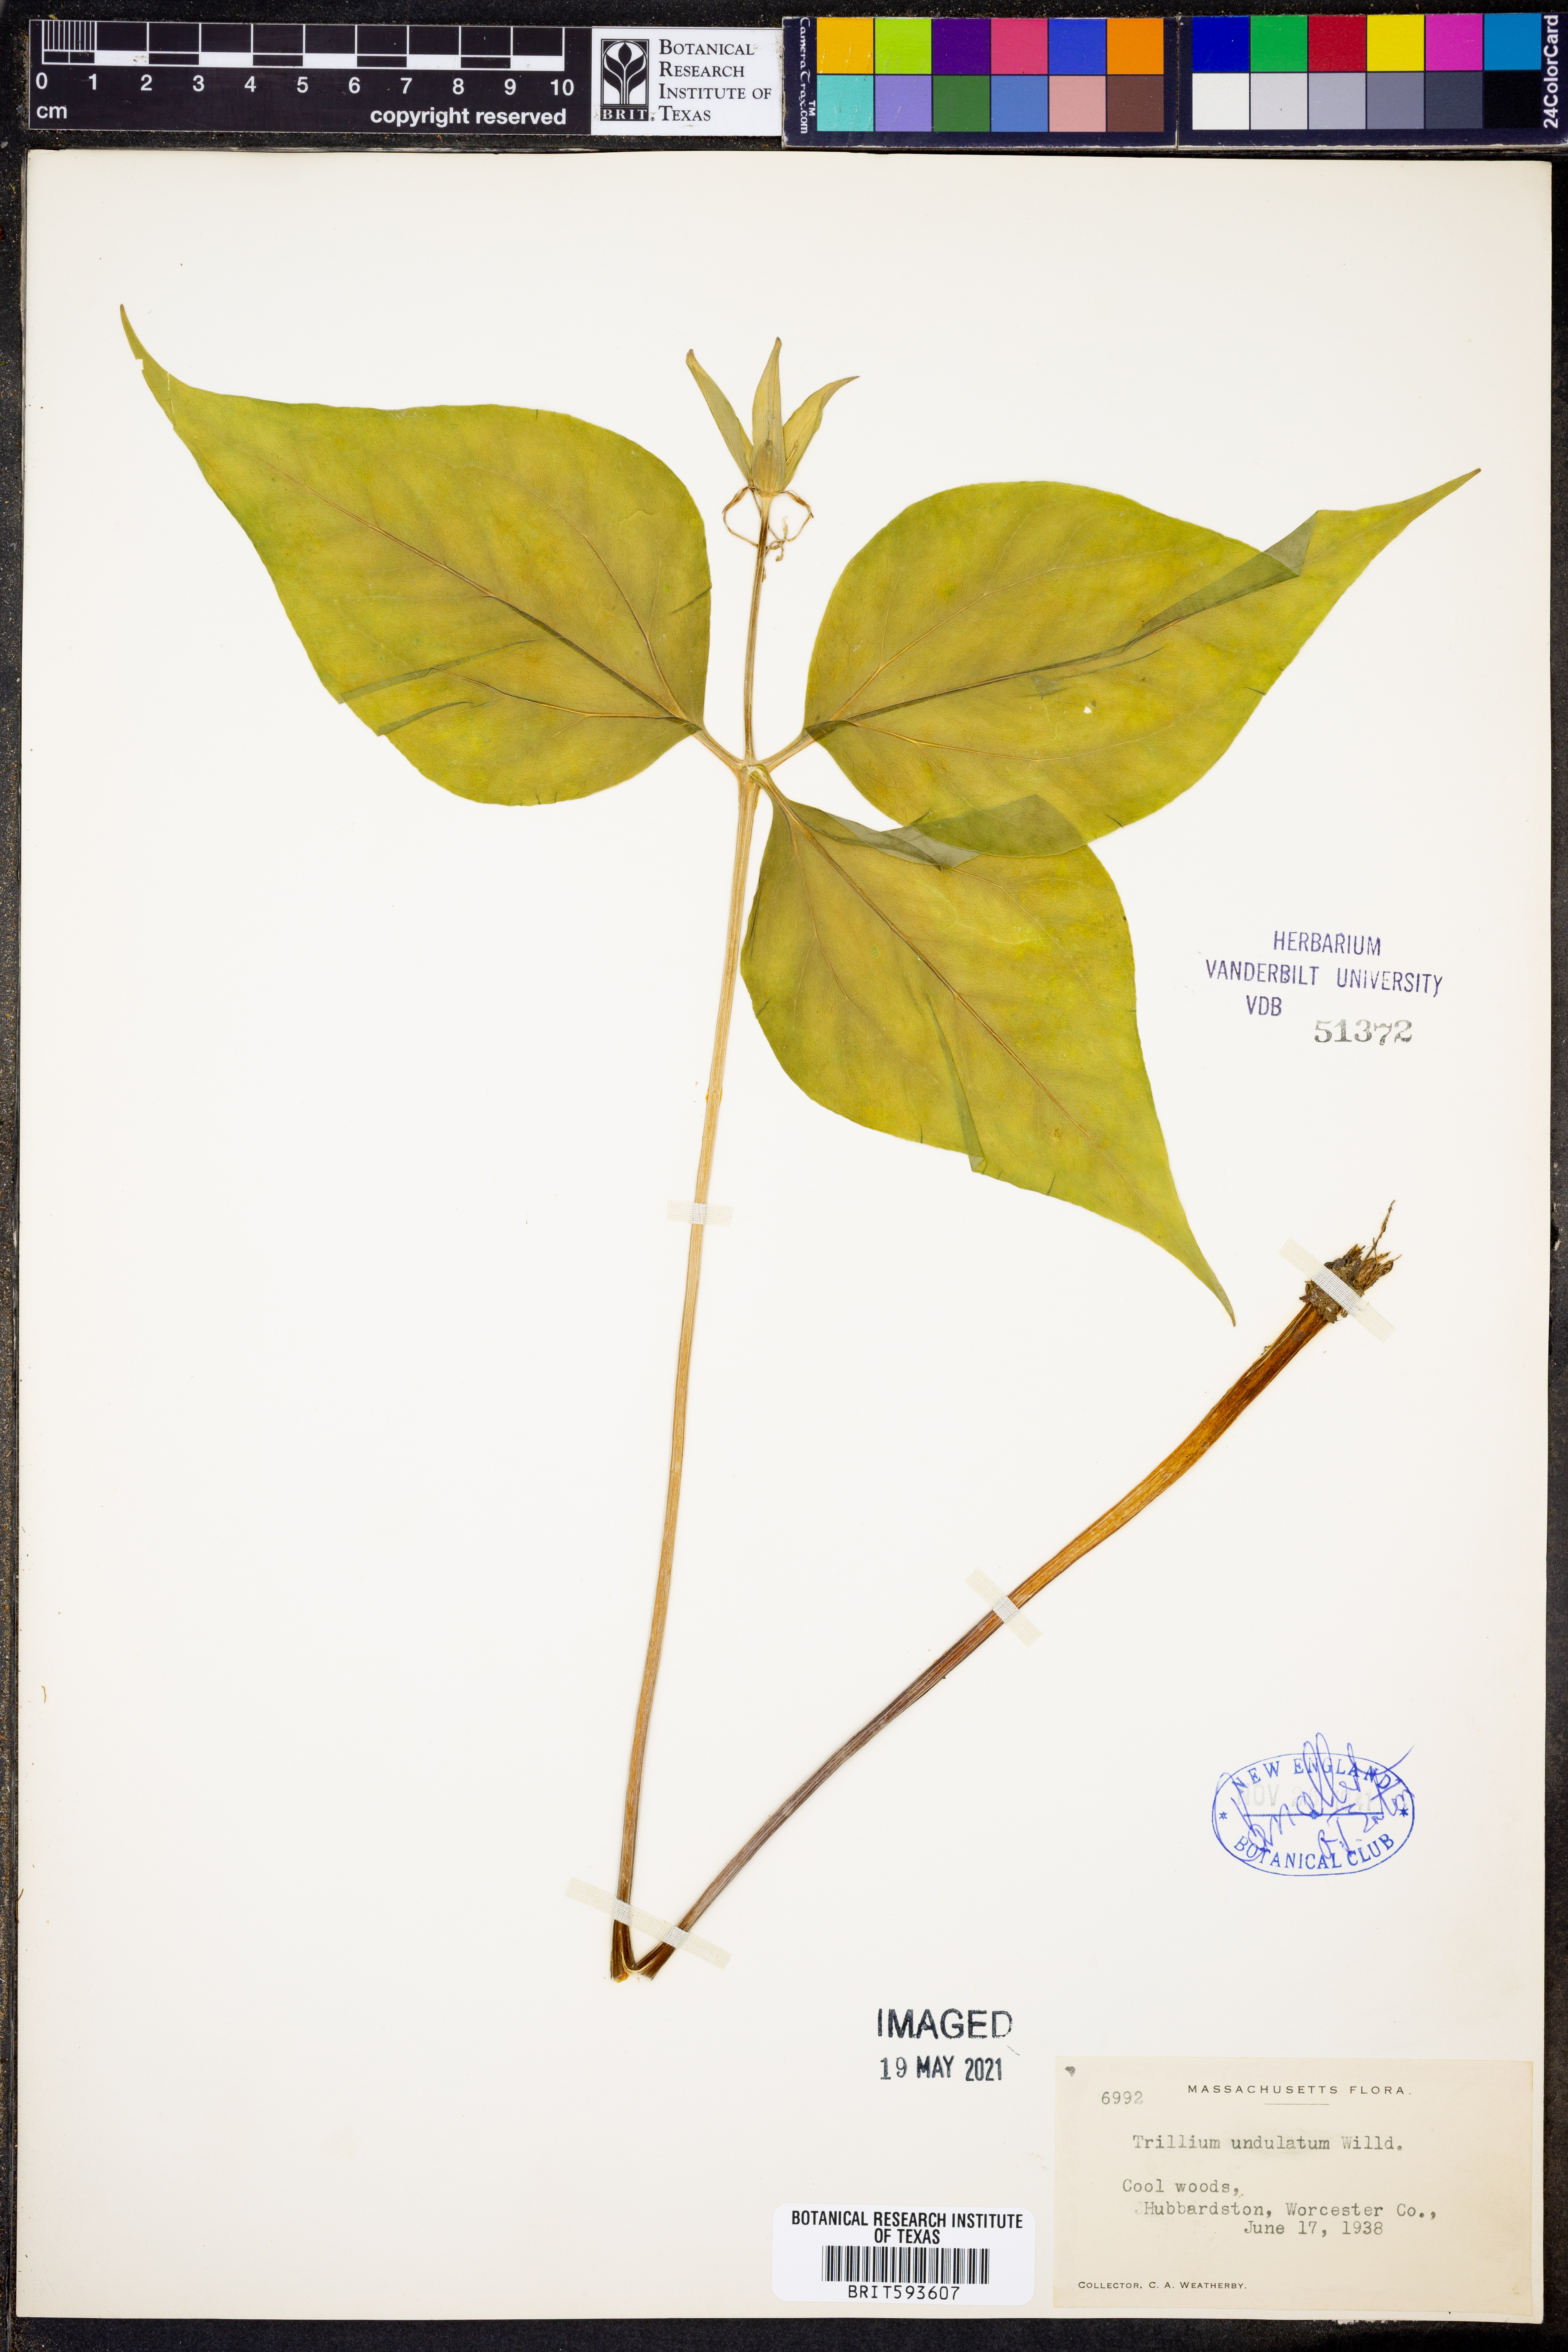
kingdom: Plantae
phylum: Tracheophyta
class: Liliopsida
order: Liliales
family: Melanthiaceae
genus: Trillium
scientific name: Trillium undulatum
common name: Paint trillium
